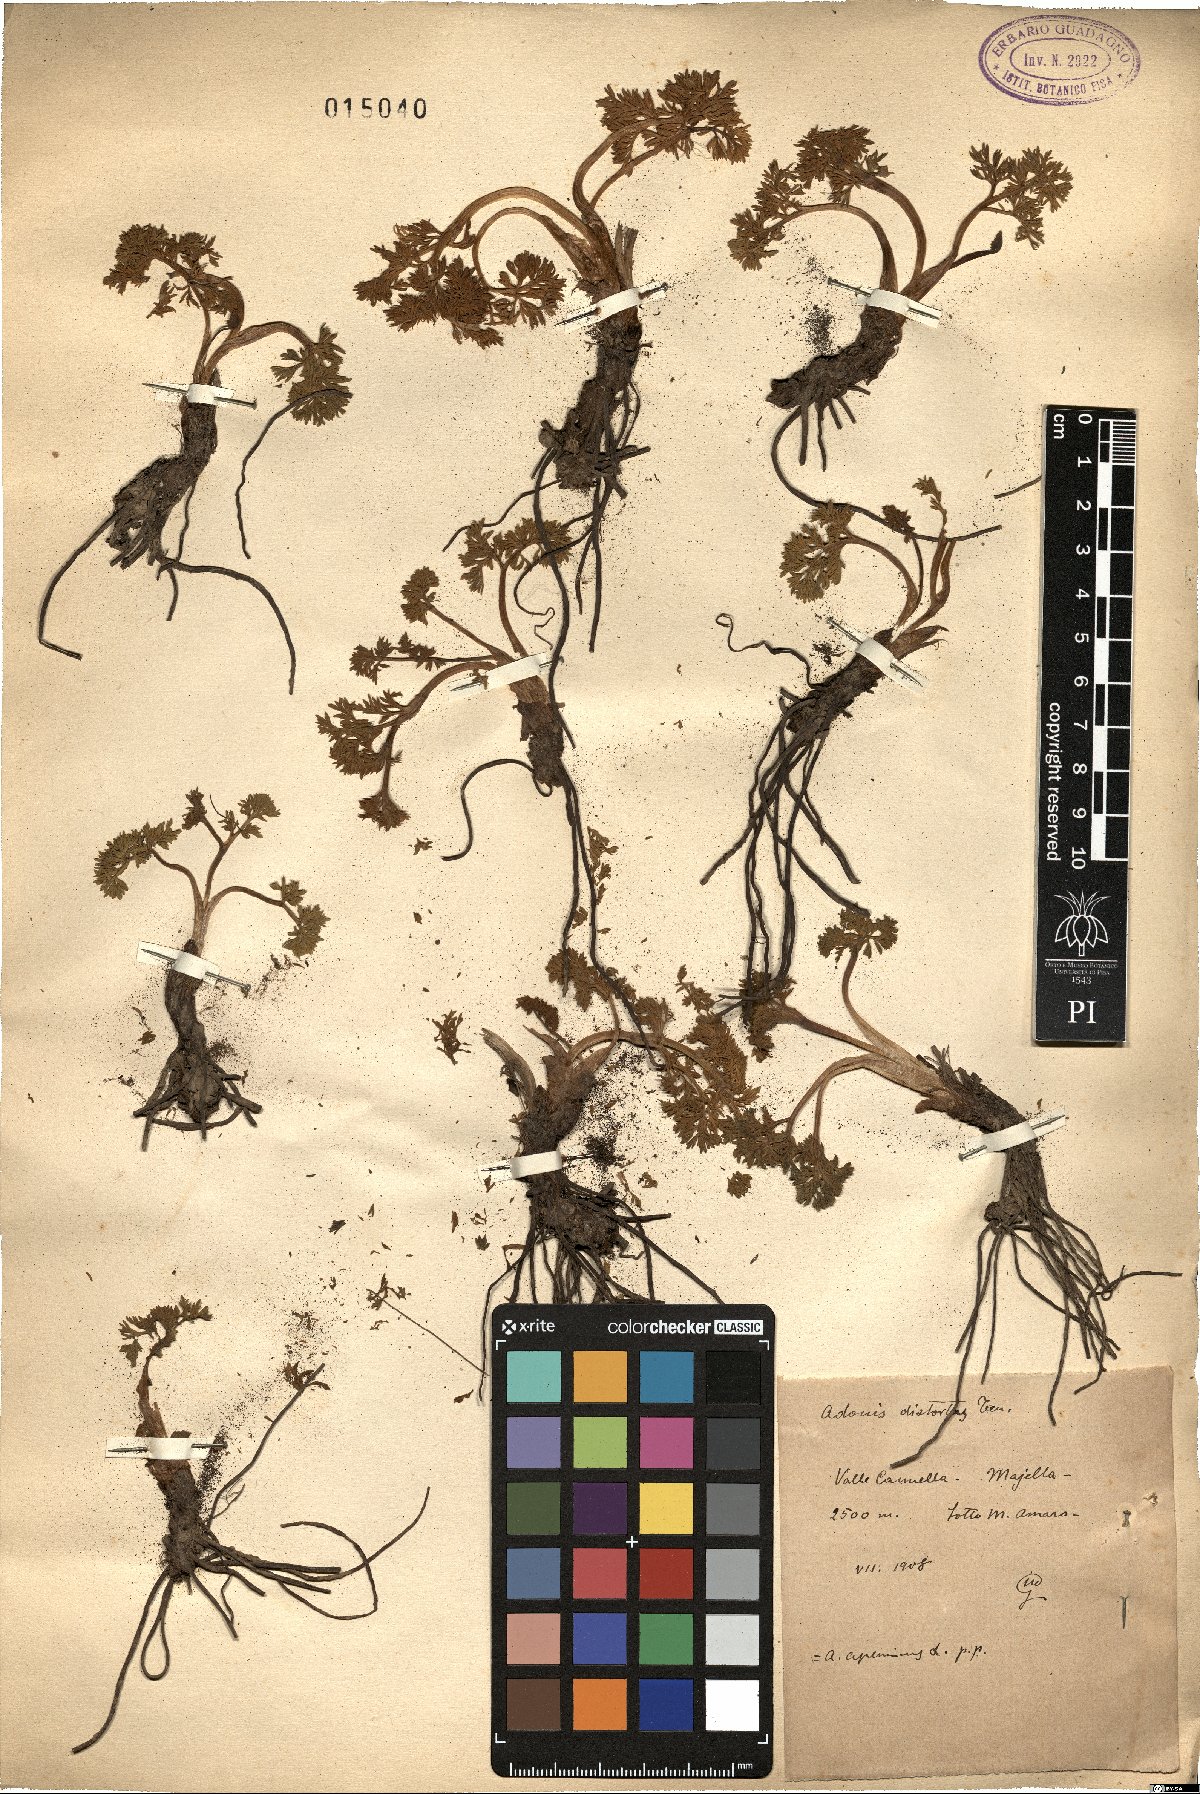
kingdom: Plantae
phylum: Tracheophyta
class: Magnoliopsida
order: Ranunculales
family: Ranunculaceae
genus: Adonis
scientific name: Adonis distorta
